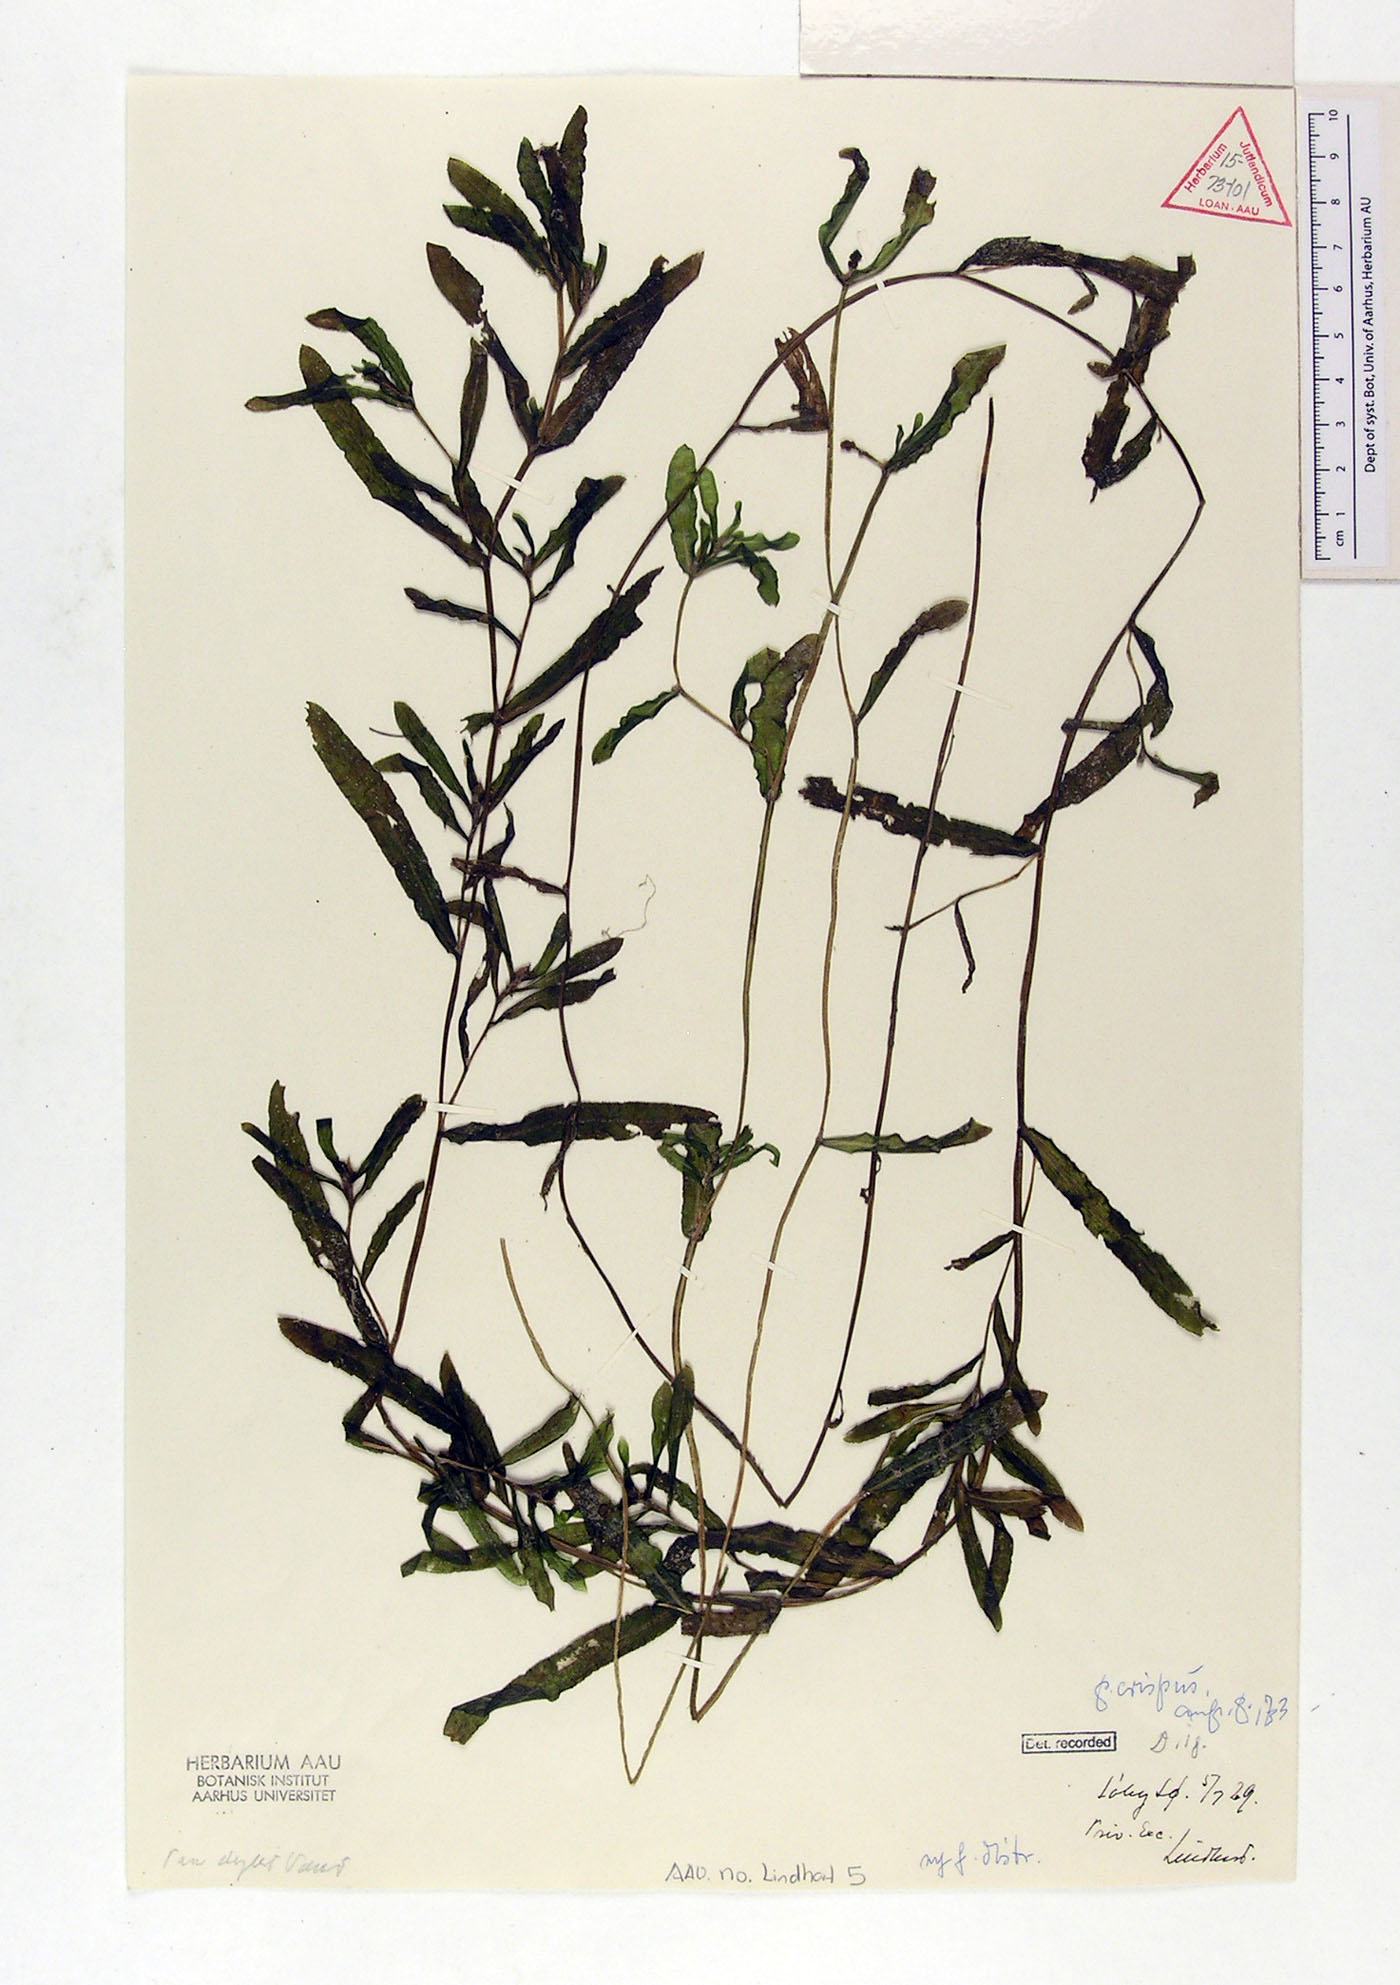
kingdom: Plantae
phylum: Tracheophyta
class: Liliopsida
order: Alismatales
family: Potamogetonaceae
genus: Potamogeton
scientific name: Potamogeton crispus
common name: Curled pondweed
